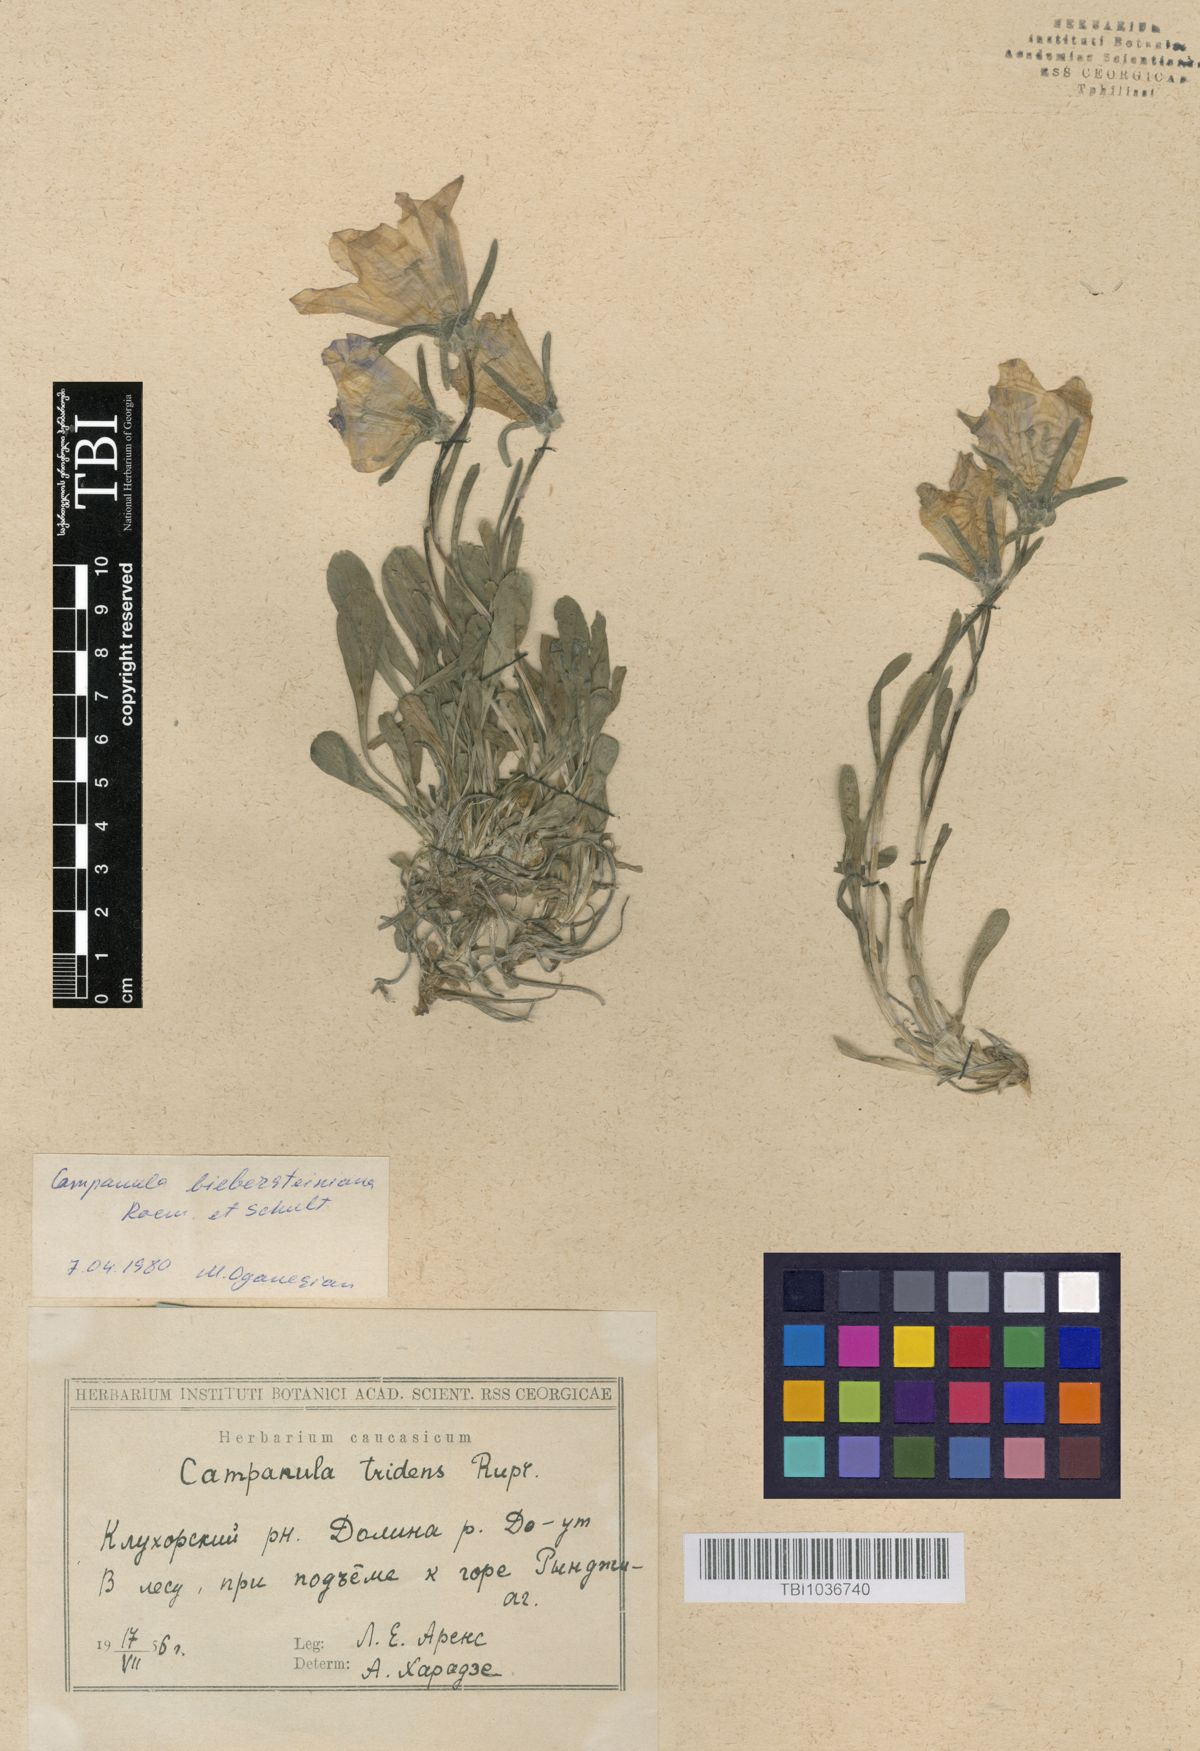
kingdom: Plantae
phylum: Tracheophyta
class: Magnoliopsida
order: Asterales
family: Campanulaceae
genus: Campanula
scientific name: Campanula tridentata
